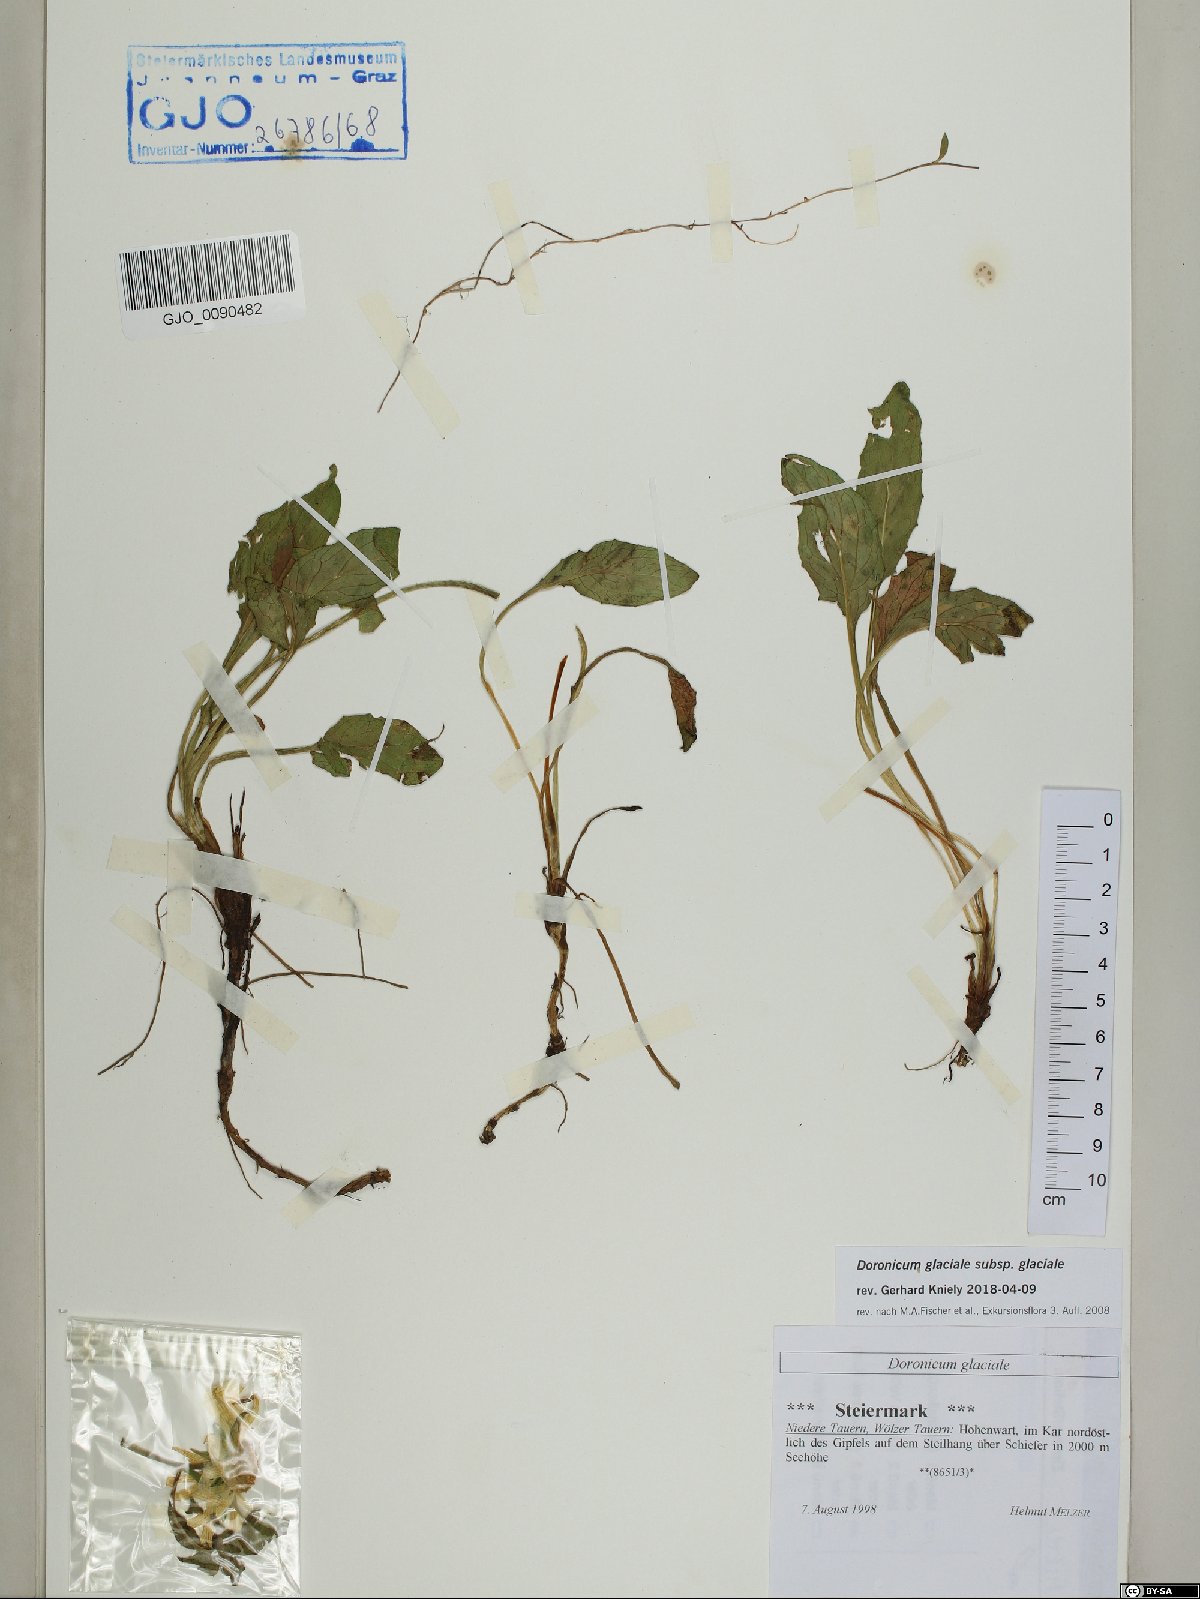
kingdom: Plantae
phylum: Tracheophyta
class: Magnoliopsida
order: Asterales
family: Asteraceae
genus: Doronicum
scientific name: Doronicum glaciale
